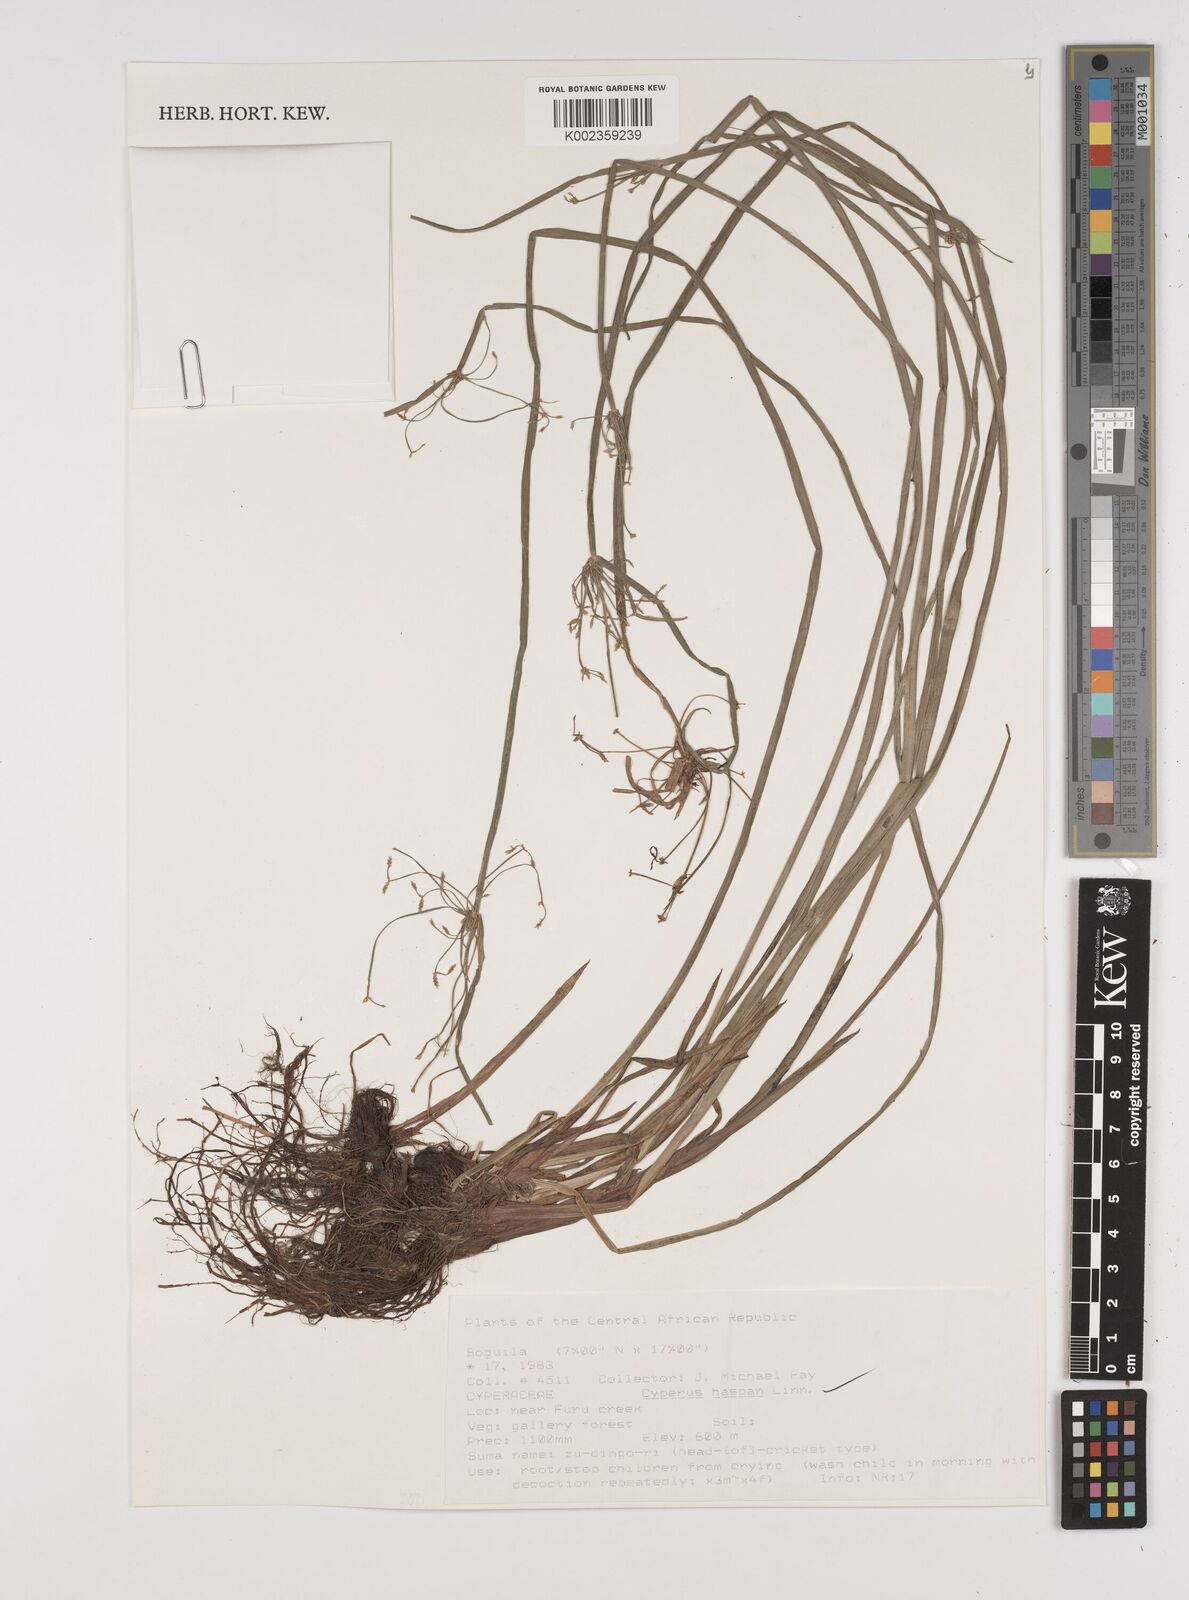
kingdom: Plantae
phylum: Tracheophyta
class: Liliopsida
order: Poales
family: Cyperaceae
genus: Cyperus
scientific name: Cyperus haspan
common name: Haspan flatsedge
